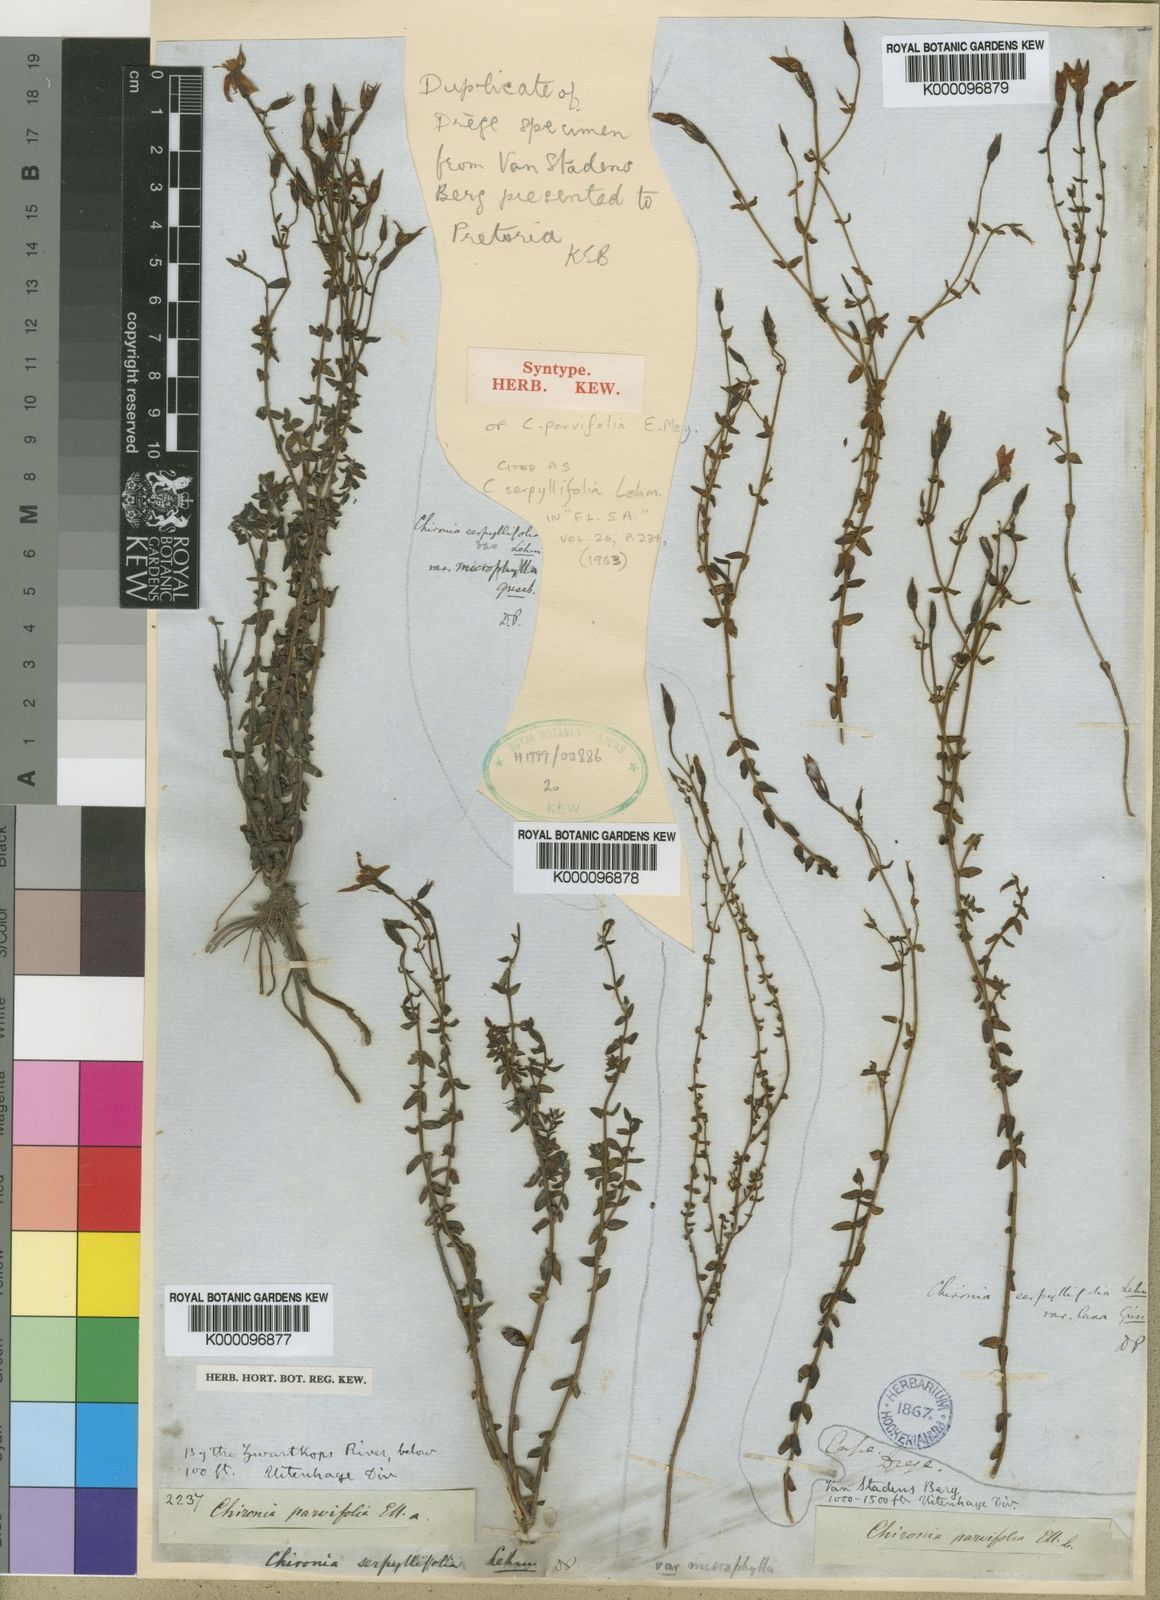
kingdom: Plantae
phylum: Tracheophyta
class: Magnoliopsida
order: Gentianales
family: Gentianaceae
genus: Chironia
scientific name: Chironia serpyllifolia
